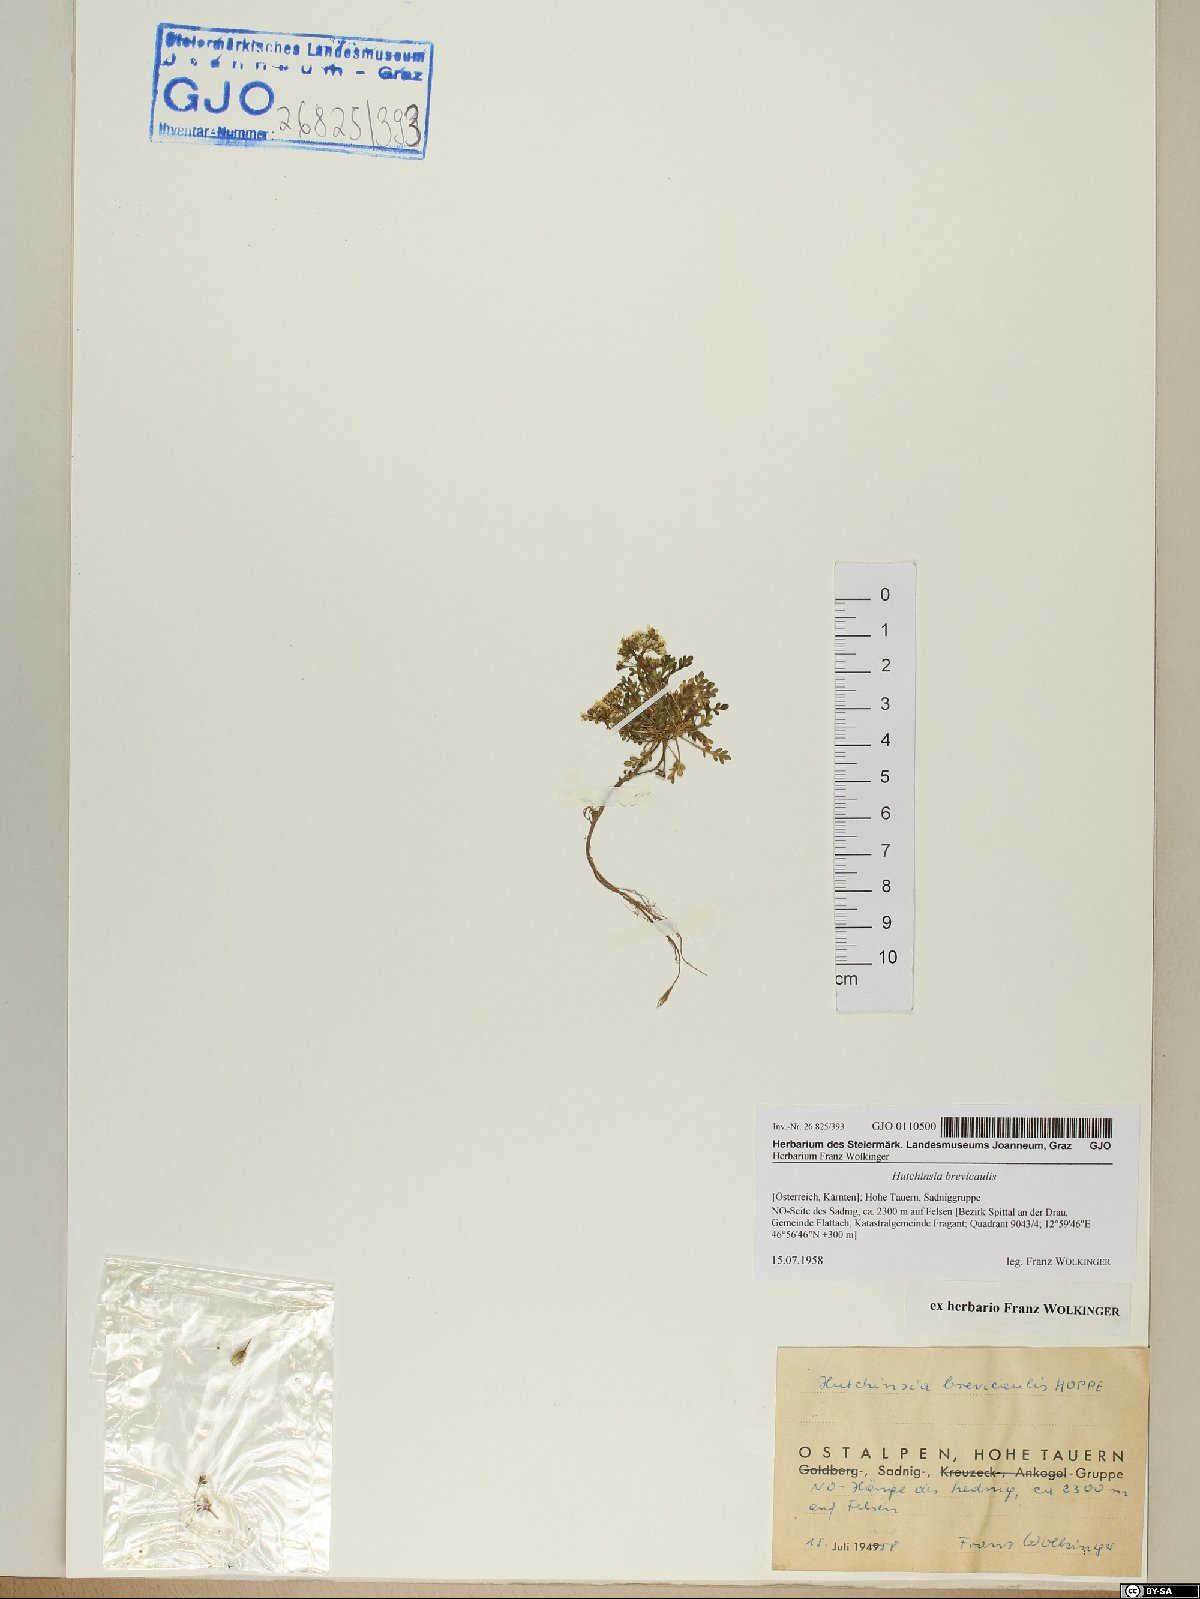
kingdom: Plantae
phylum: Tracheophyta
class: Magnoliopsida
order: Brassicales
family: Brassicaceae
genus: Hornungia
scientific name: Hornungia alpina
